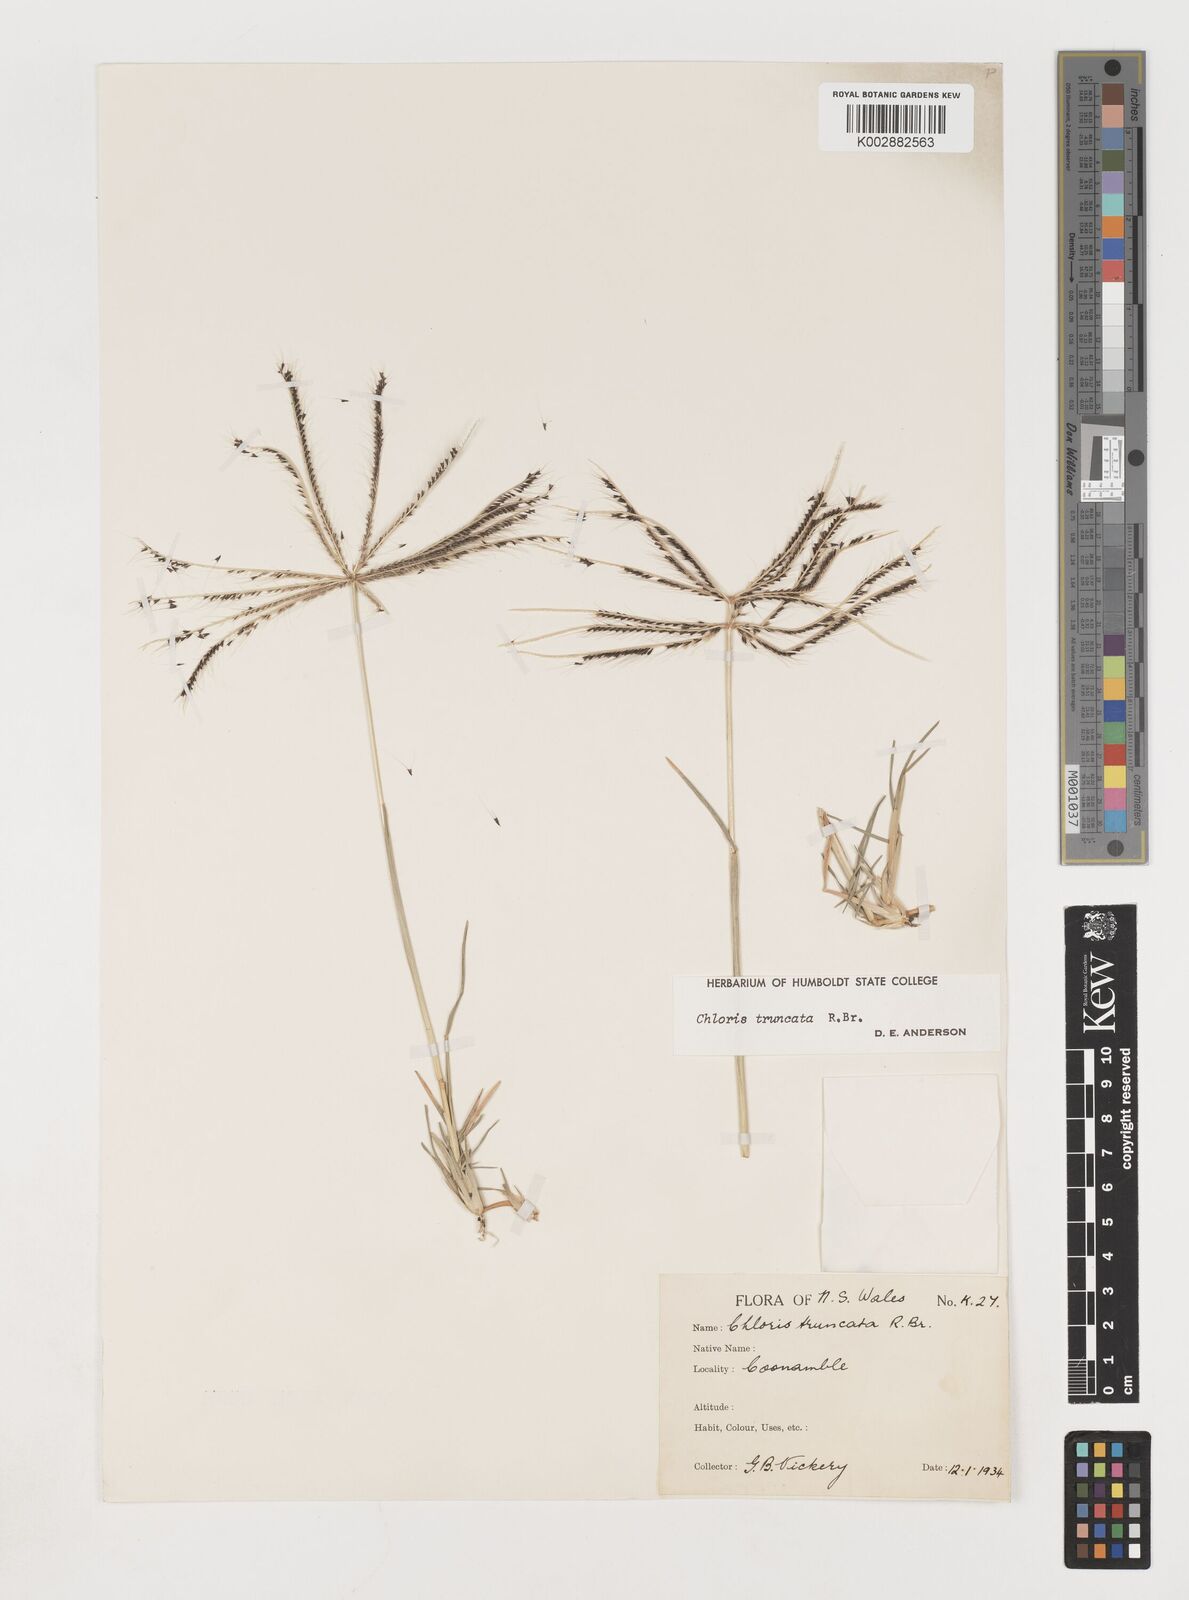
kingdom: Plantae
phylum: Tracheophyta
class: Liliopsida
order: Poales
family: Poaceae
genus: Chloris
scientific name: Chloris truncata
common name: Windmill-grass
